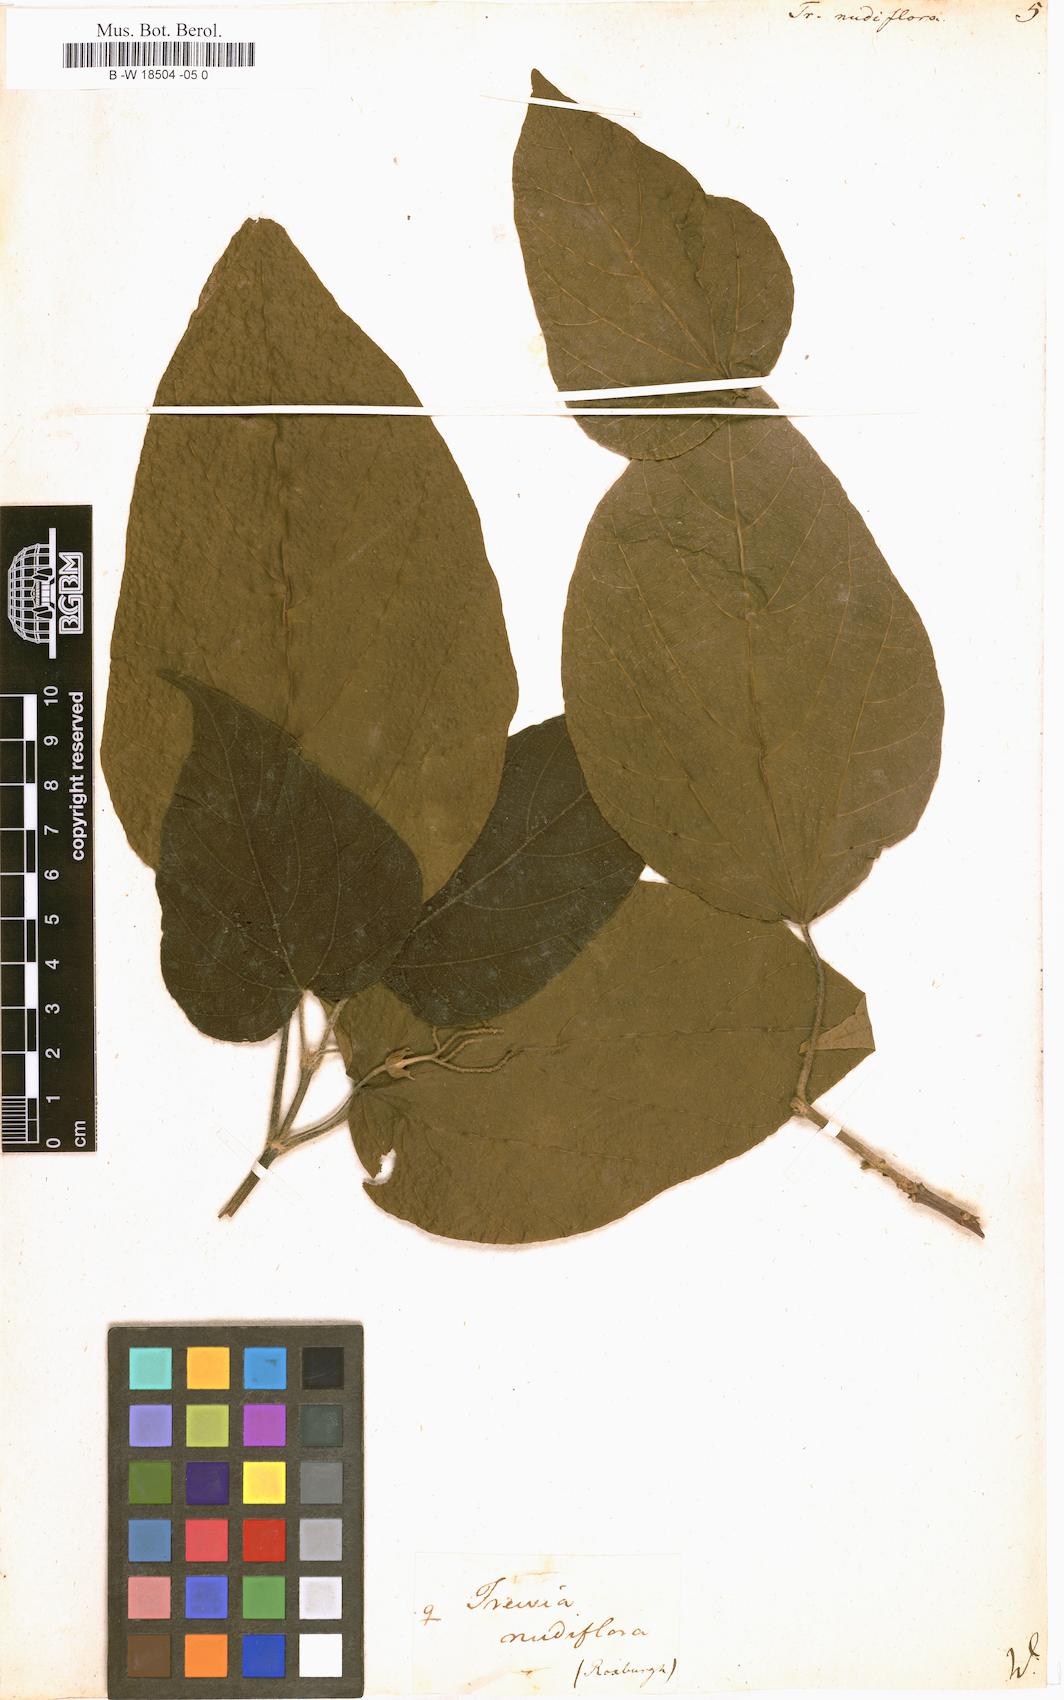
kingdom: Plantae
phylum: Tracheophyta
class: Magnoliopsida
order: Malpighiales
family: Euphorbiaceae
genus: Mallotus
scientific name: Mallotus nudiflorus
